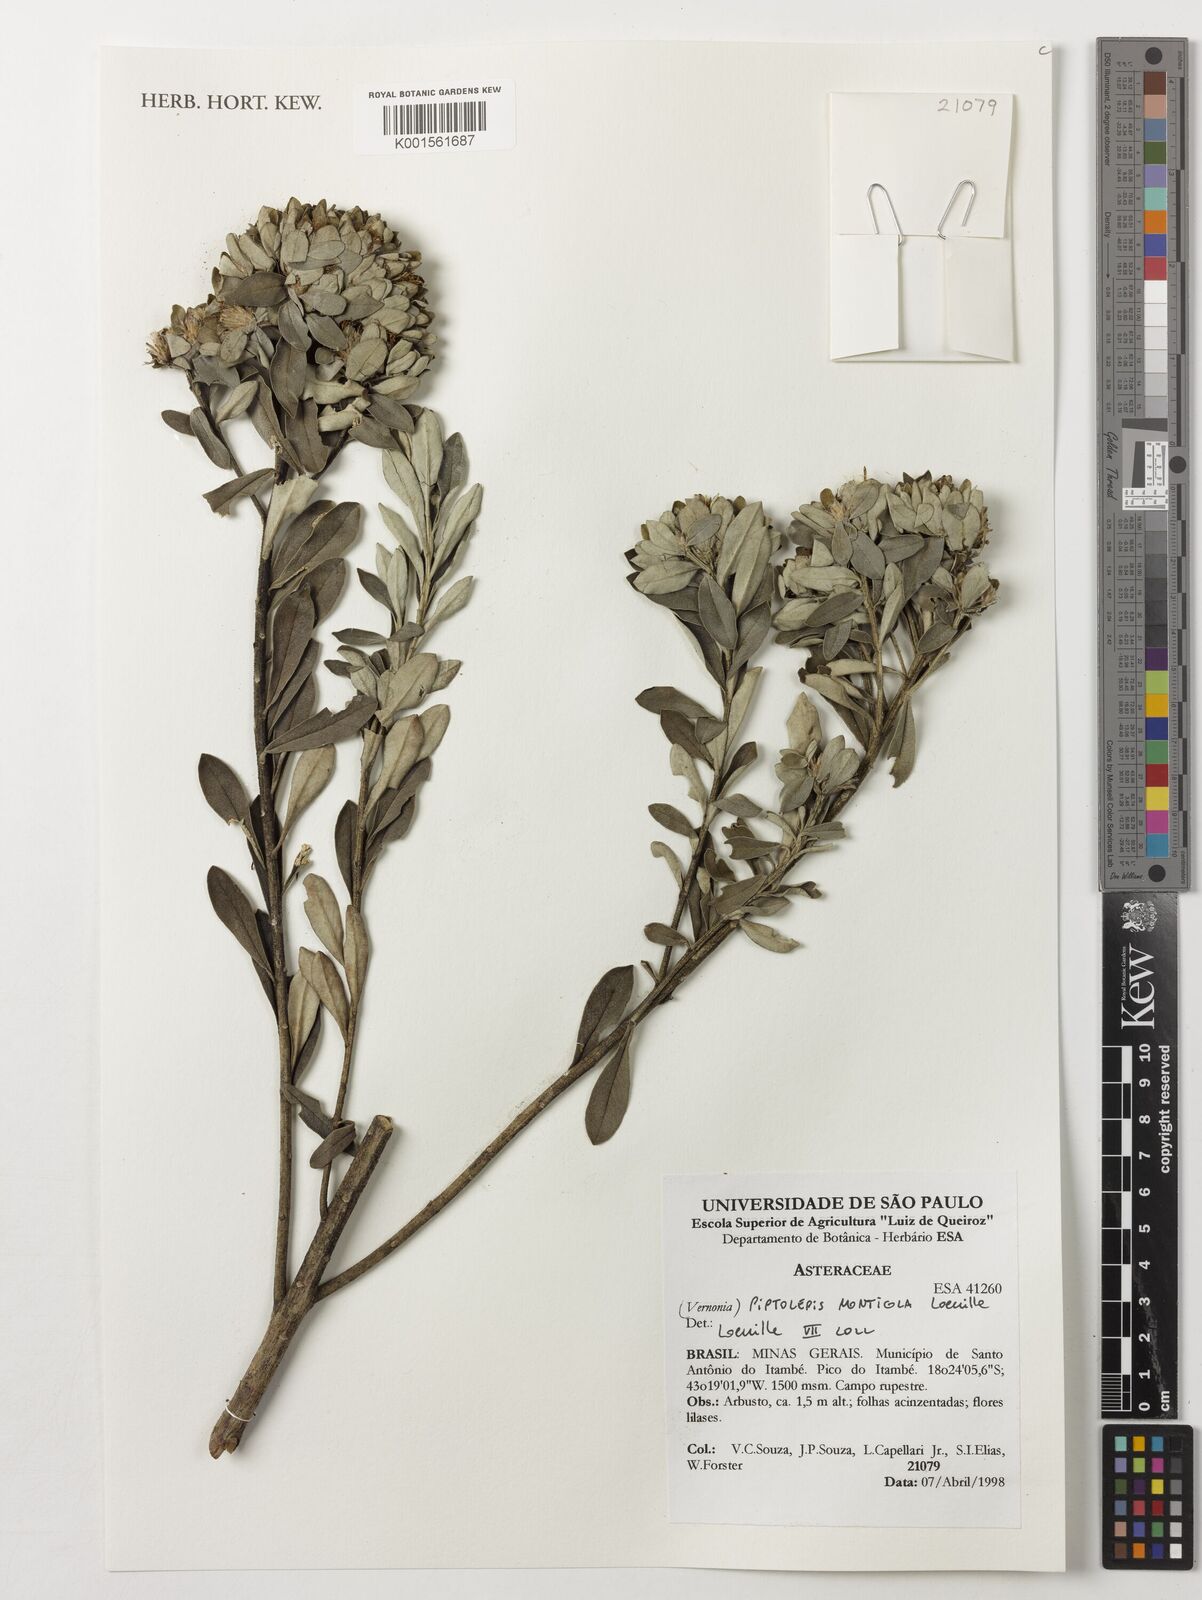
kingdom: Plantae
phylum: Tracheophyta
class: Magnoliopsida
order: Asterales
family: Asteraceae
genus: Piptolepis
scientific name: Piptolepis monticola
